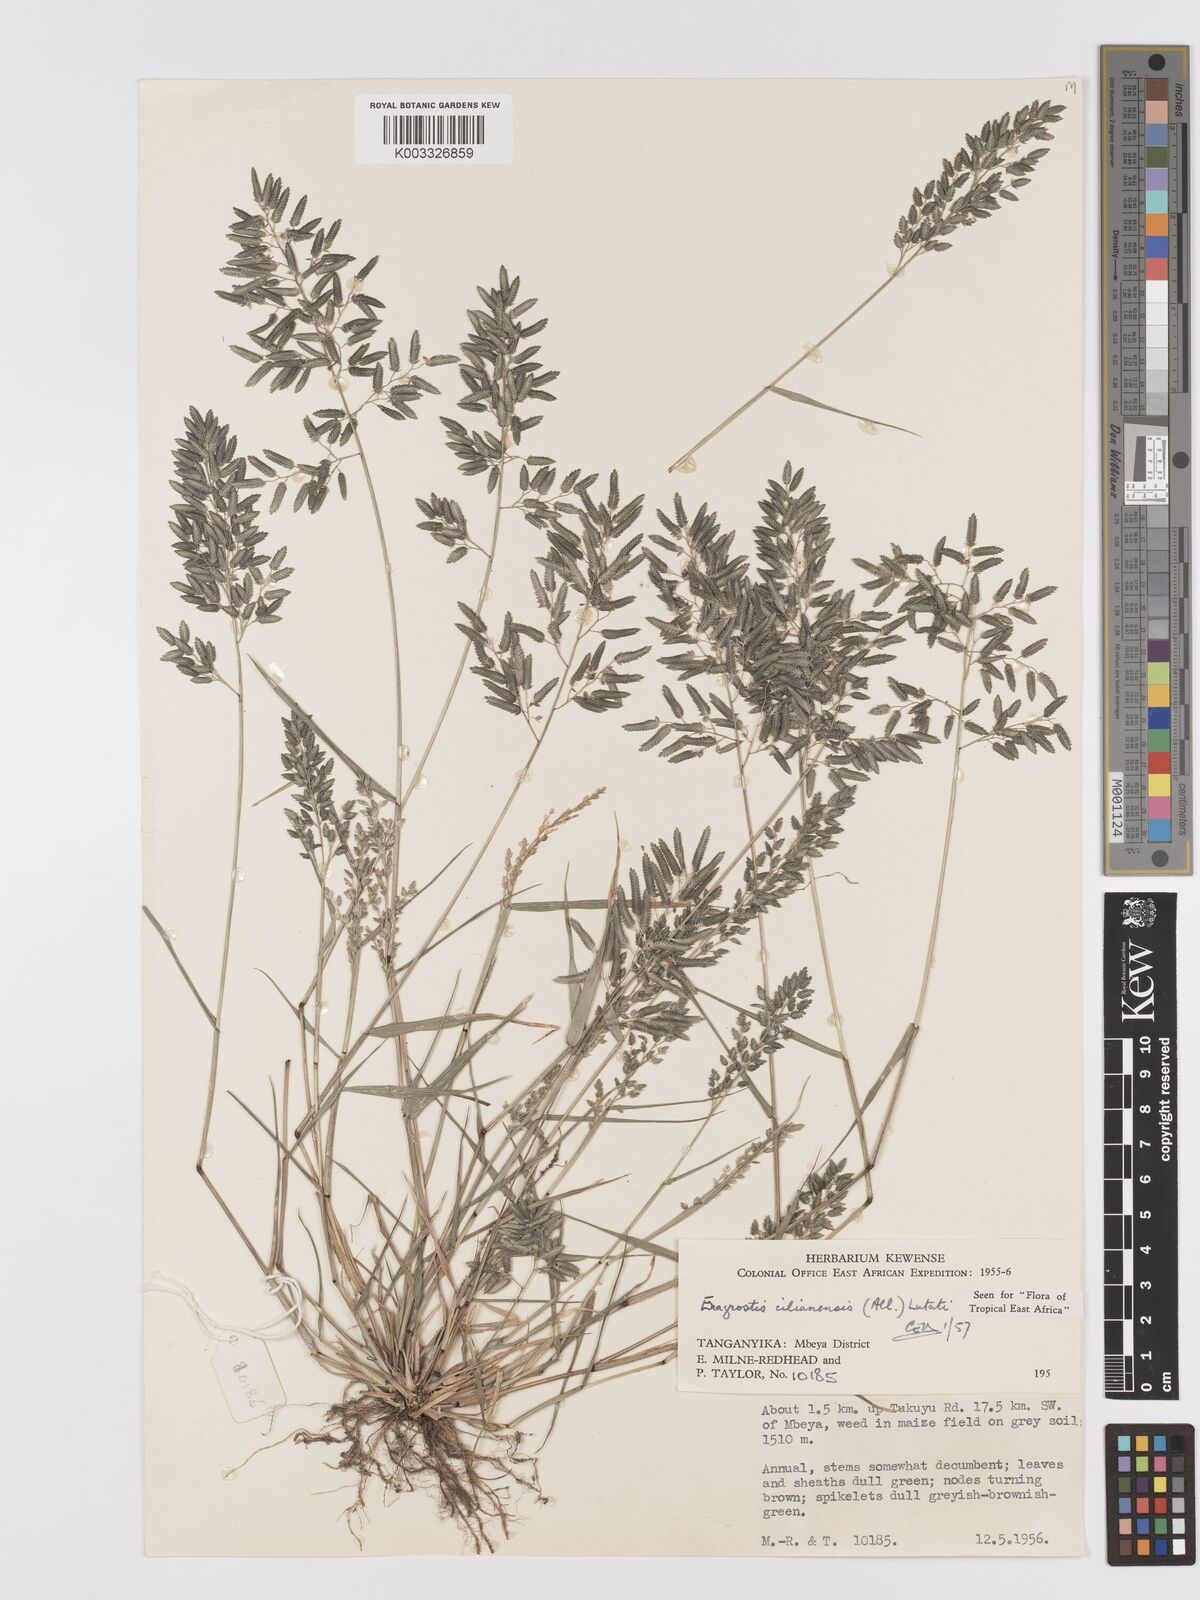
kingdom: Plantae
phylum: Tracheophyta
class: Liliopsida
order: Poales
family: Poaceae
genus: Eragrostis
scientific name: Eragrostis cilianensis
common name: Stinkgrass
